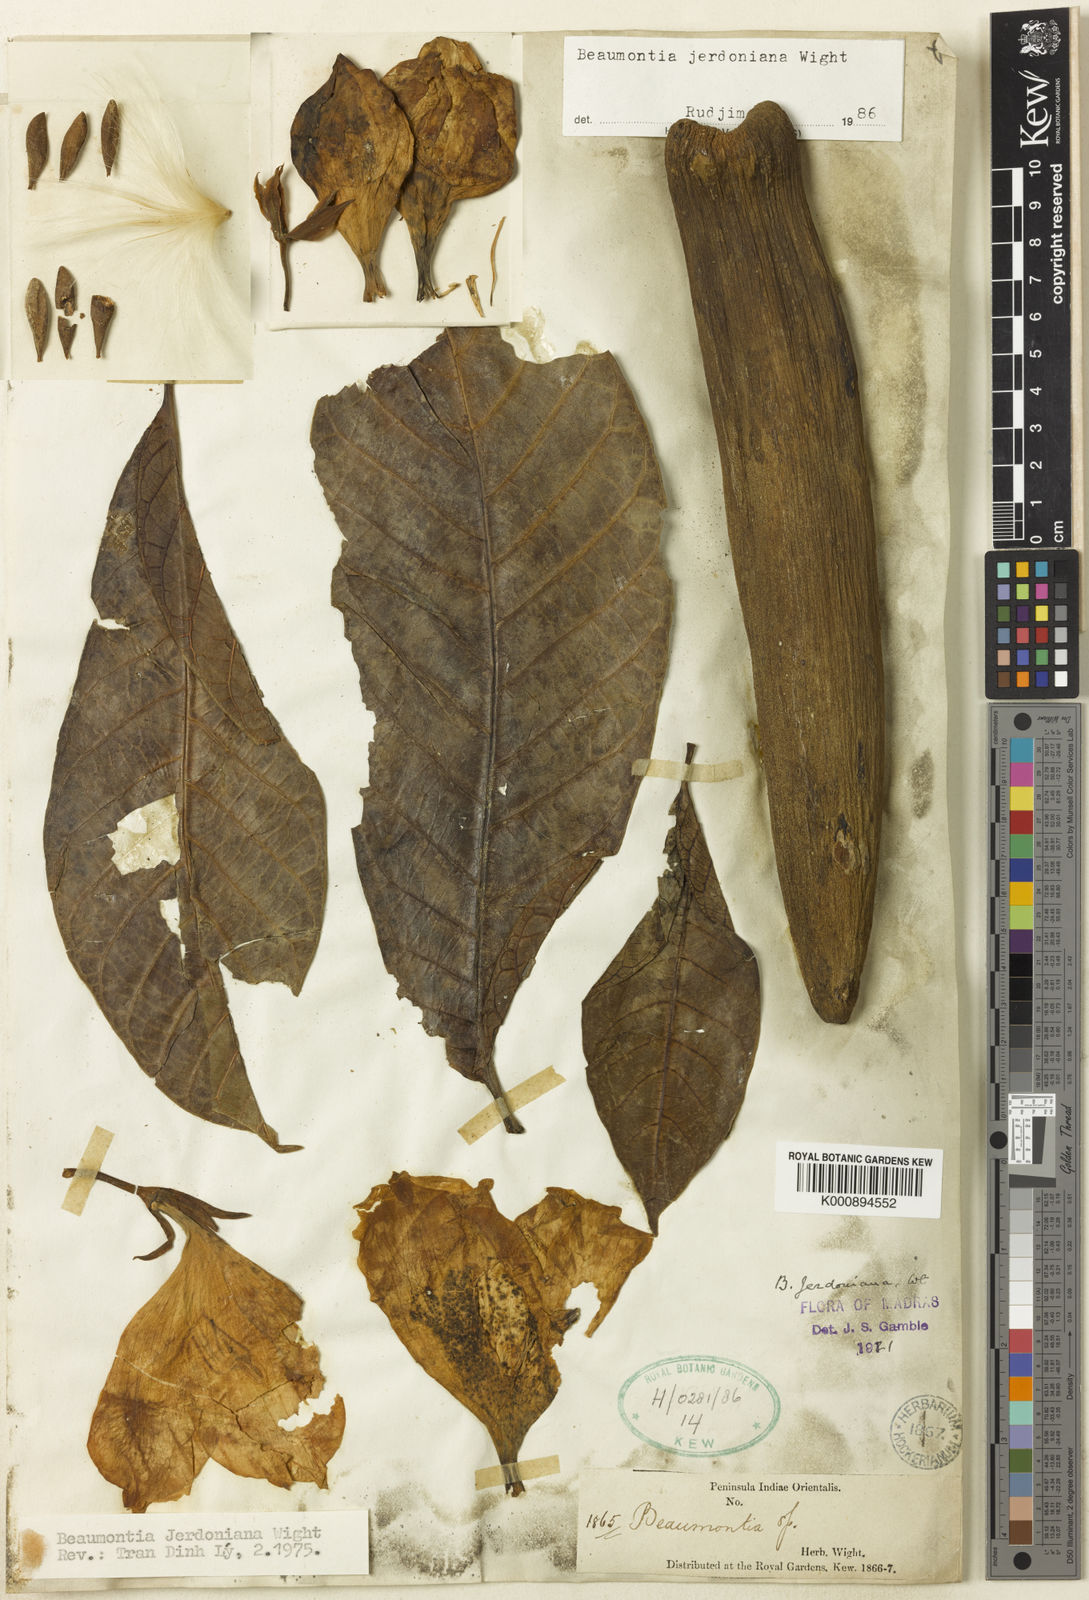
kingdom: Plantae
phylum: Tracheophyta
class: Magnoliopsida
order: Gentianales
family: Apocynaceae
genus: Beaumontia
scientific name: Beaumontia jerdoniana
